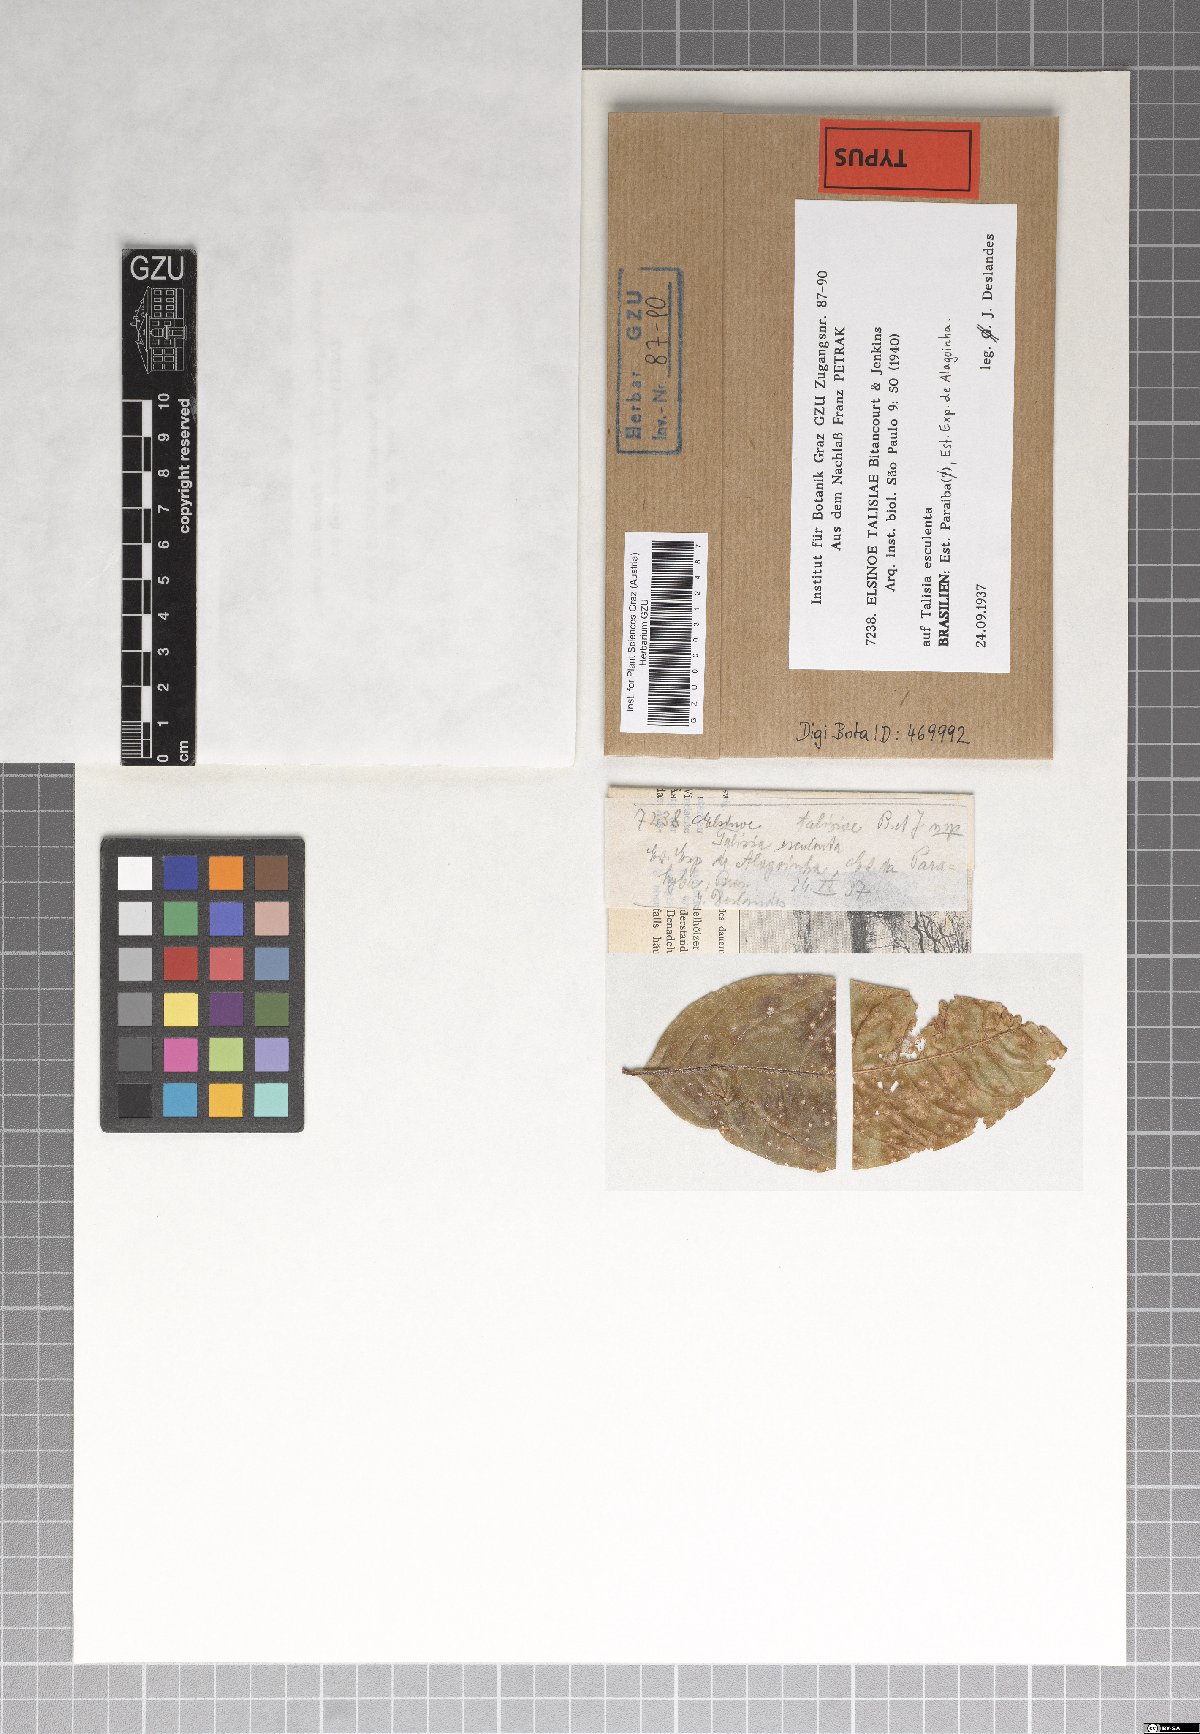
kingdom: Fungi
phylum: Ascomycota
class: Dothideomycetes
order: Myriangiales
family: Elsinoaceae
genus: Elsinoe
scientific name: Elsinoe talisiae
